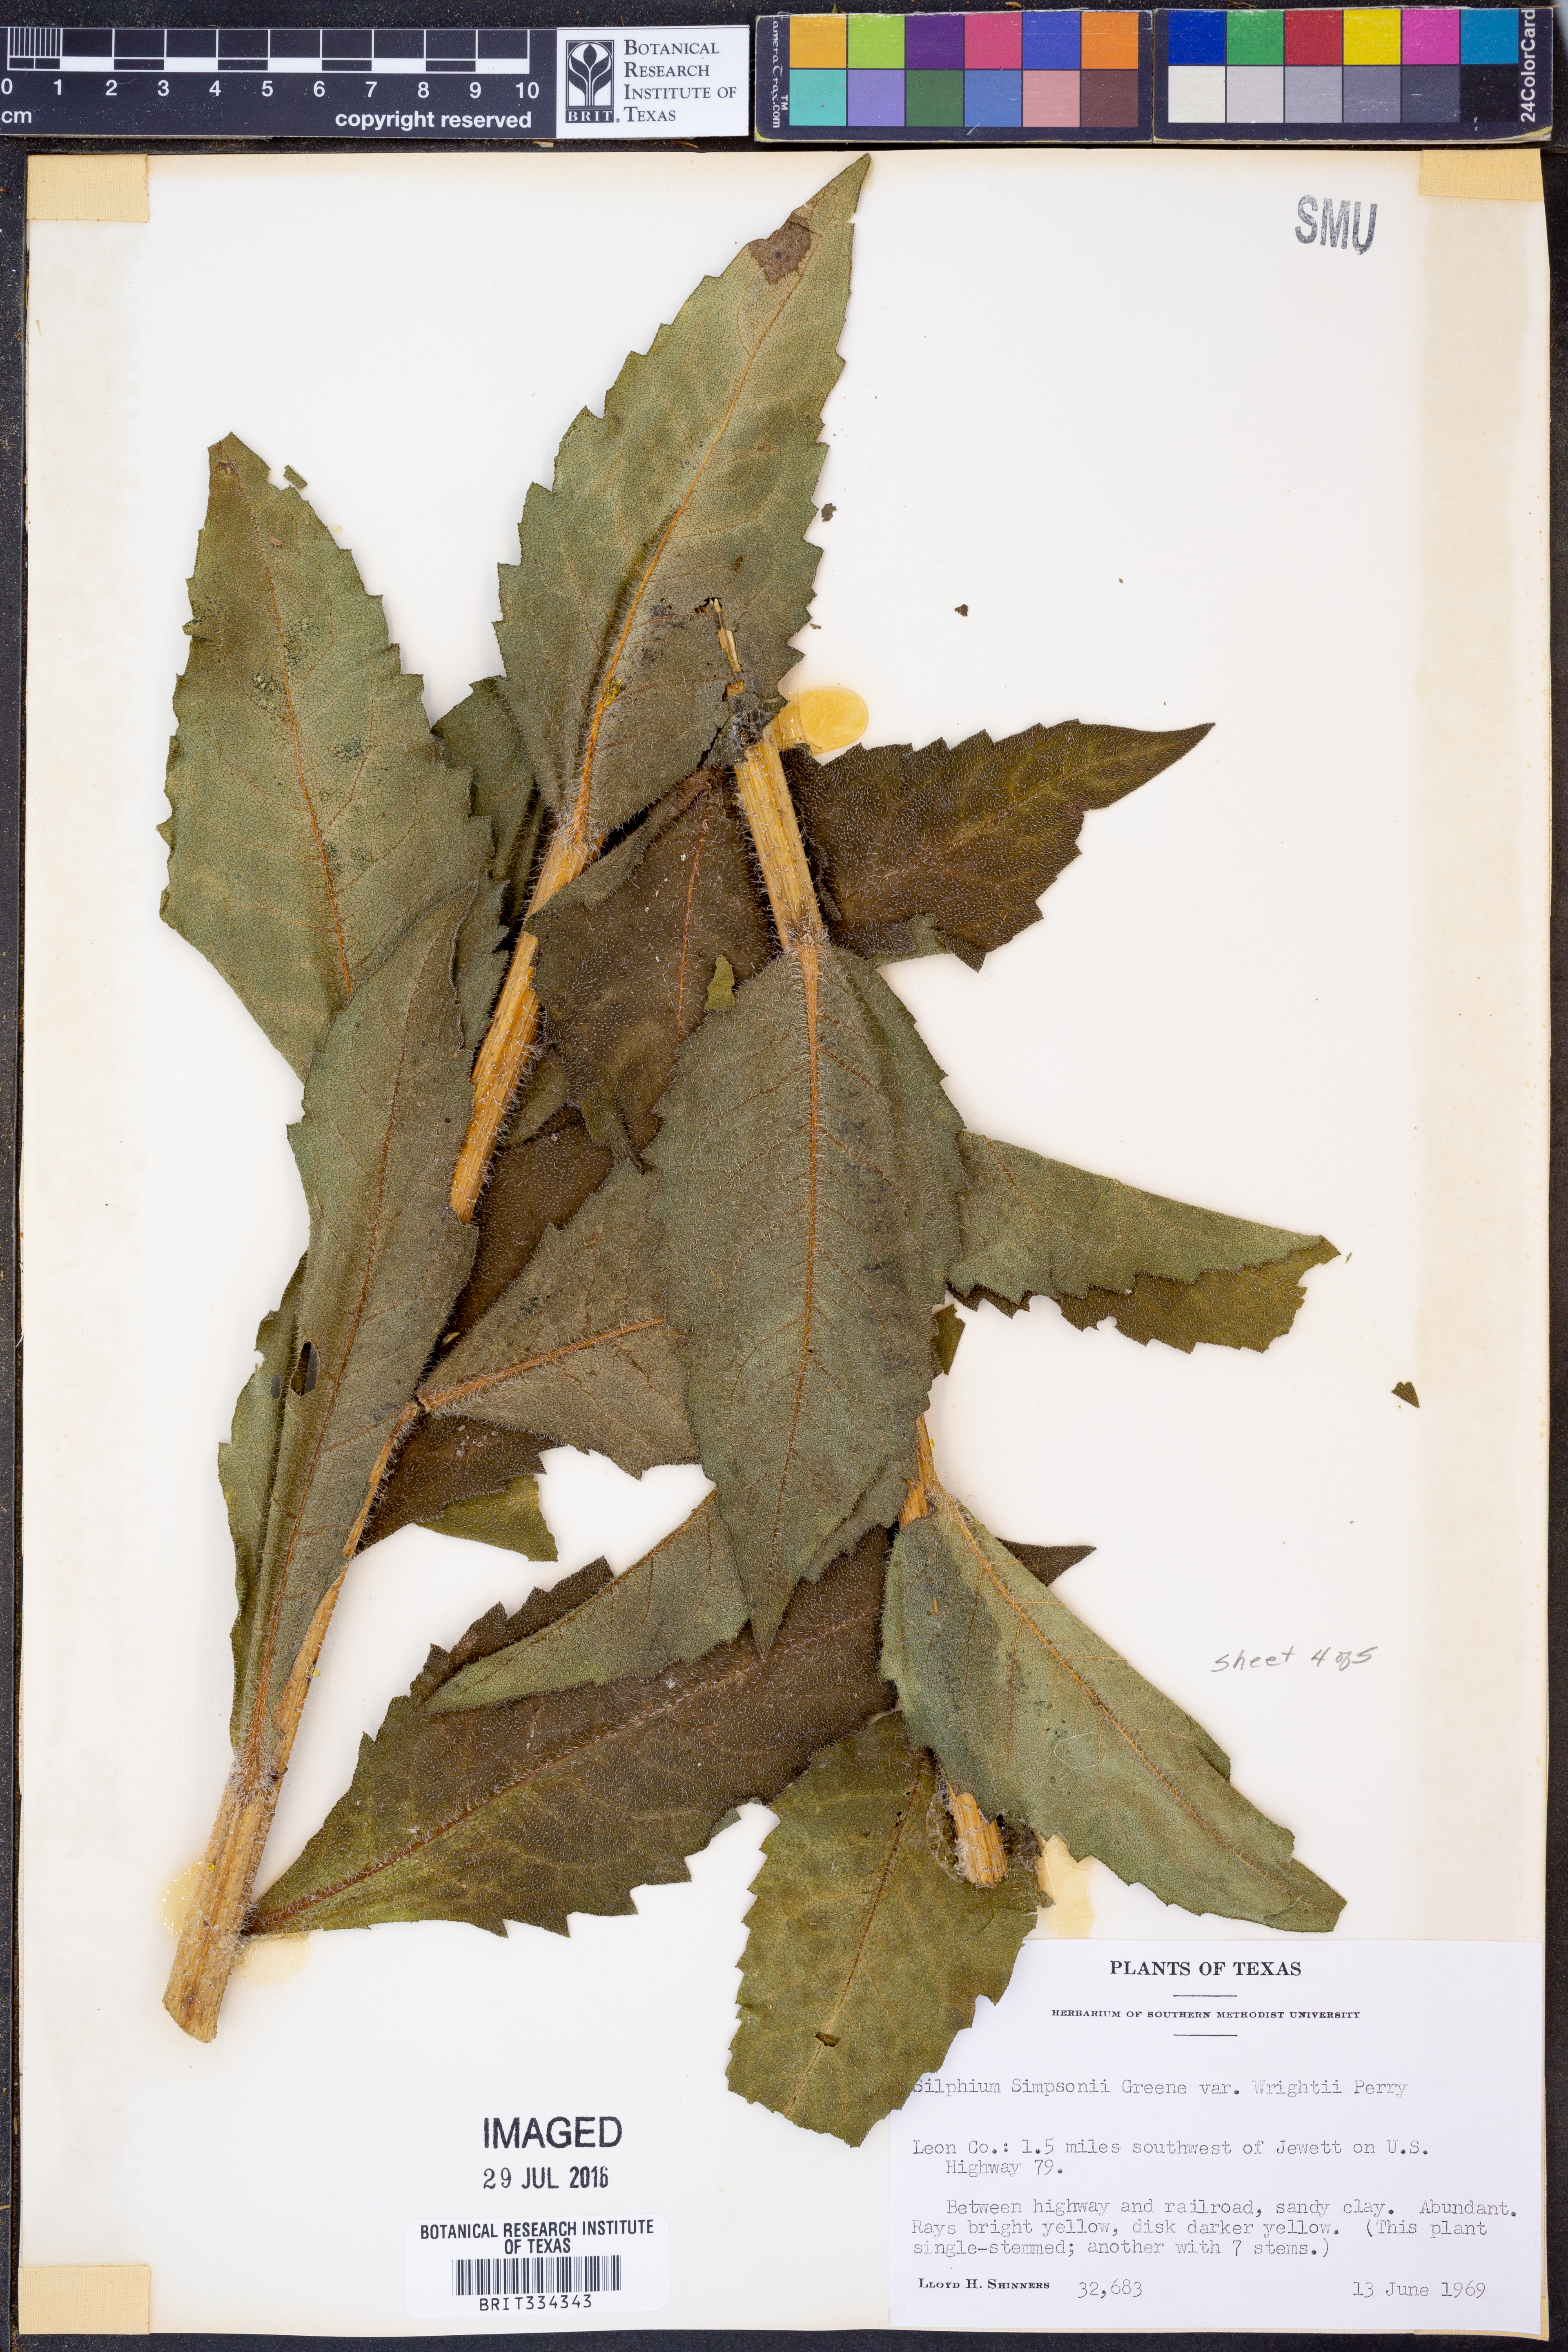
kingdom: Plantae
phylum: Tracheophyta
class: Magnoliopsida
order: Asterales
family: Asteraceae
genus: Silphium
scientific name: Silphium radula
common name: Roughleaf rosinweed
